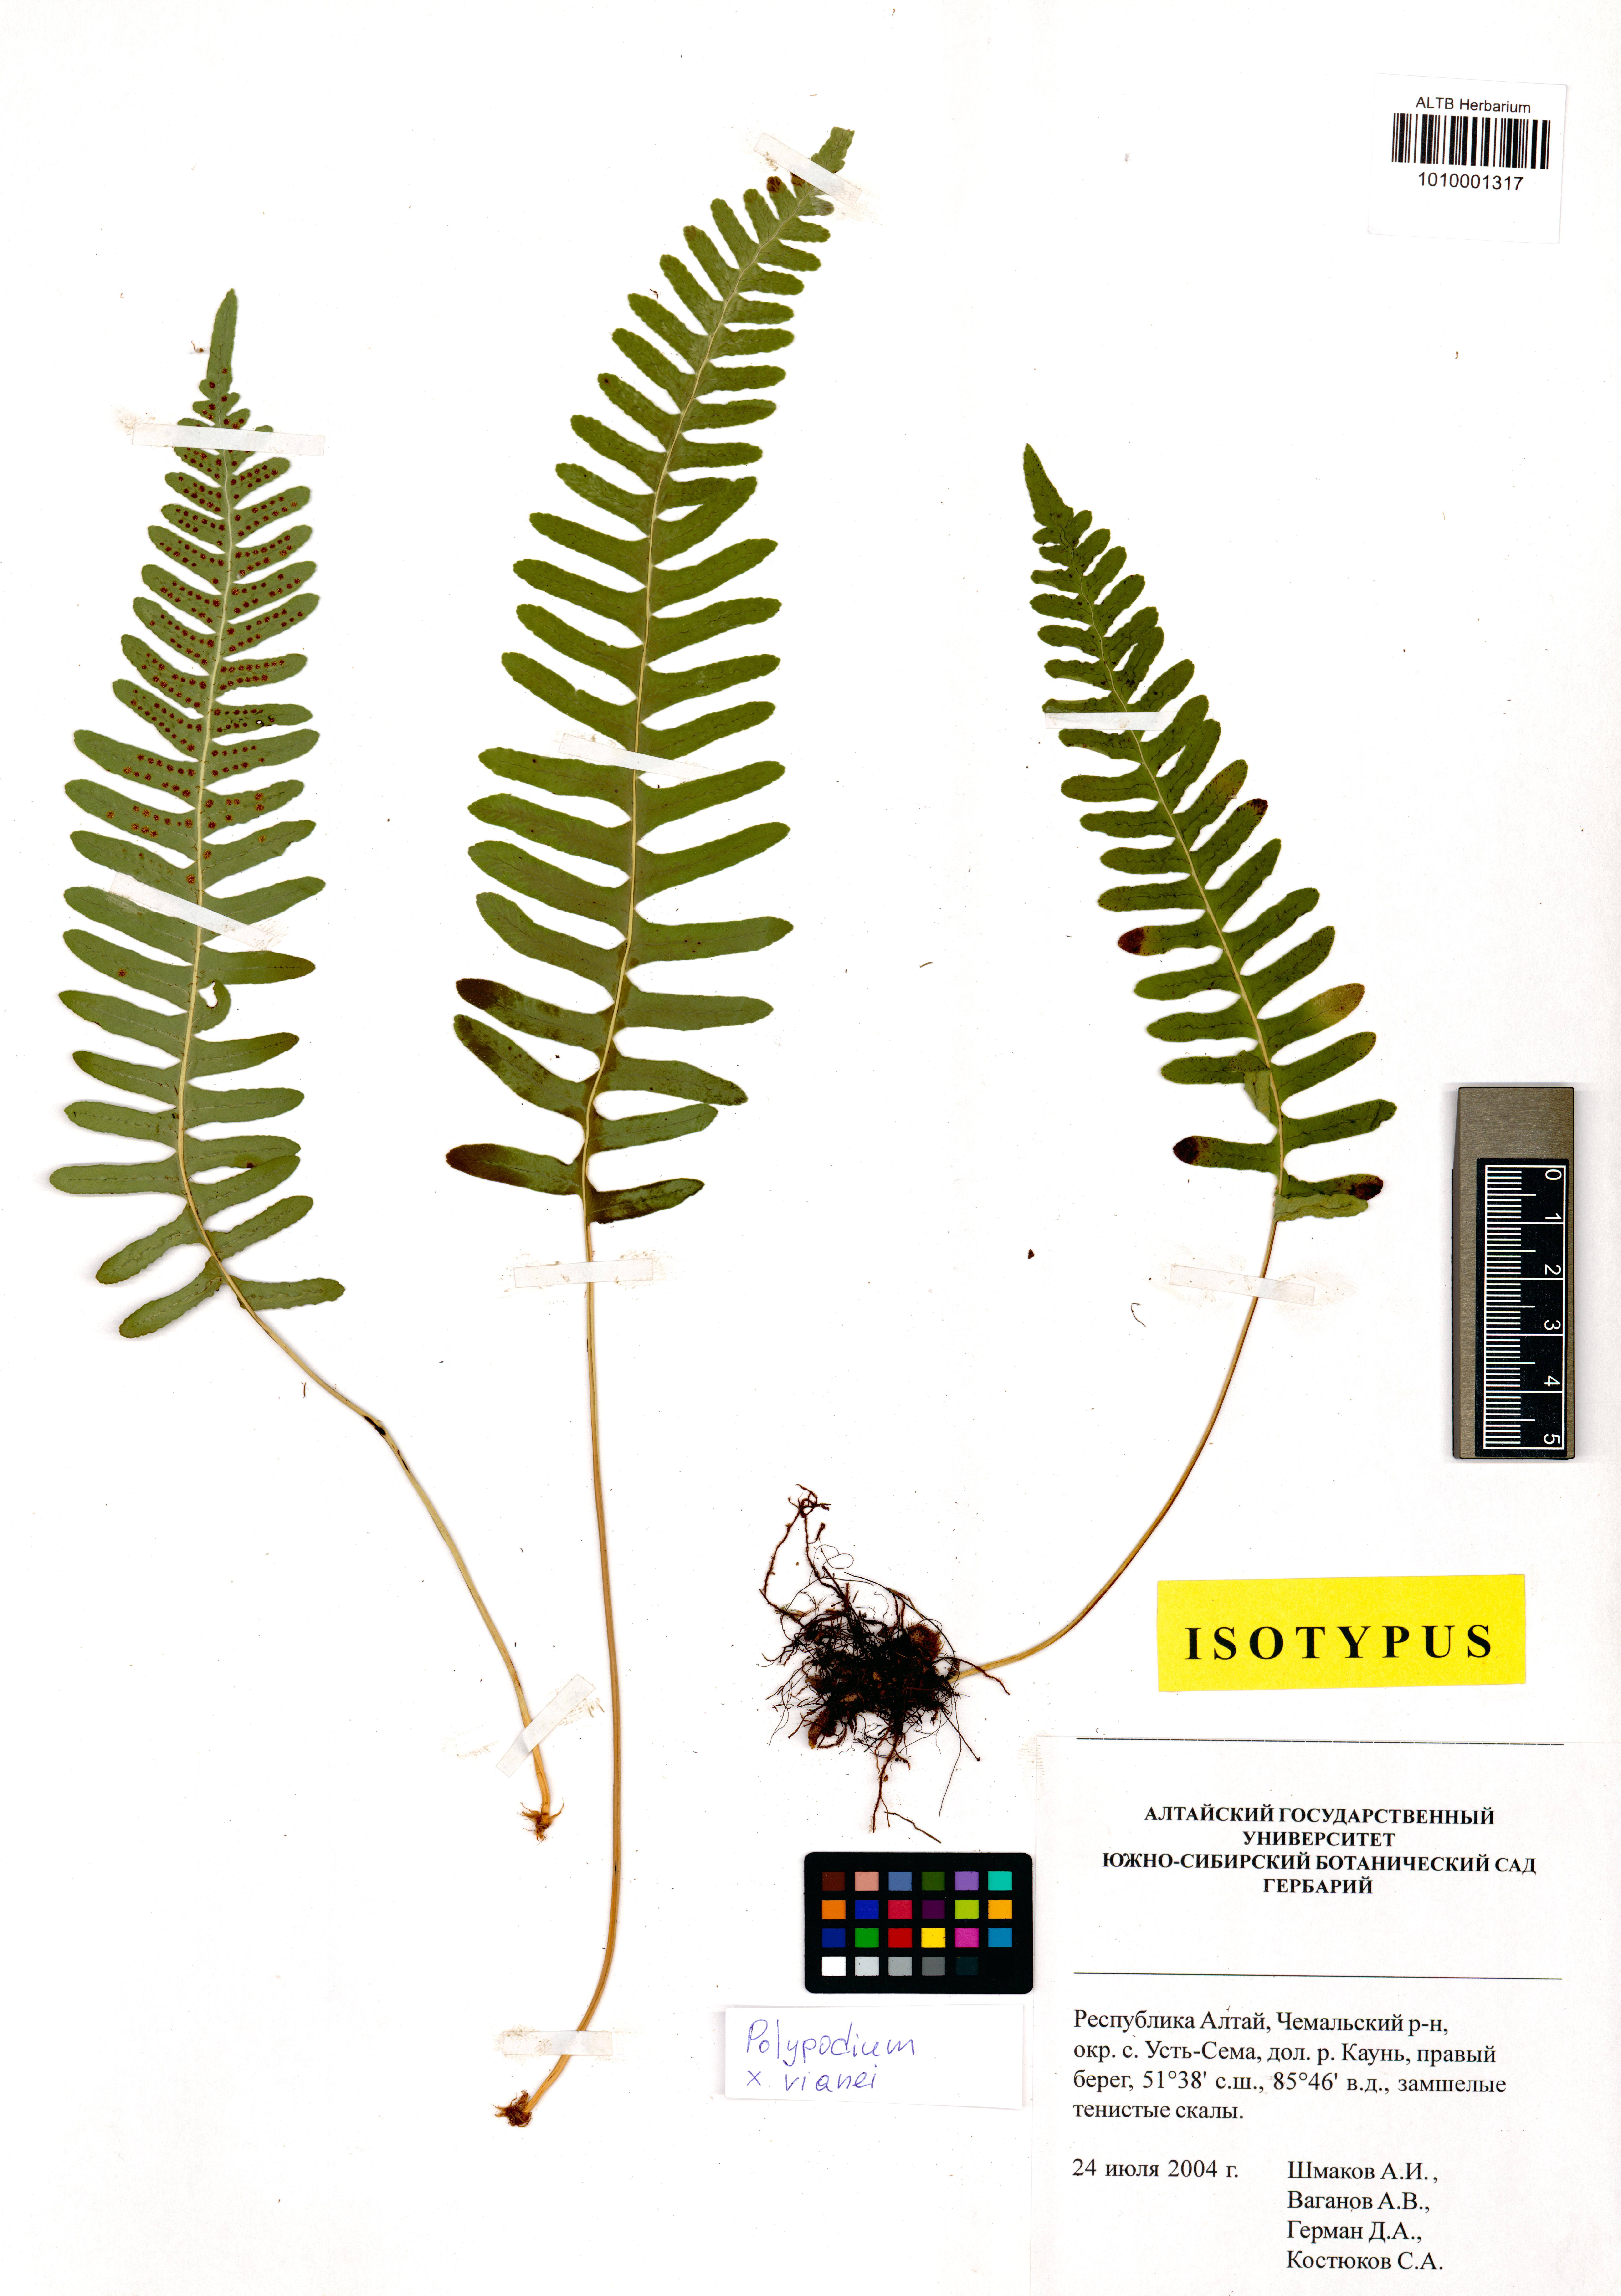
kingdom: Plantae
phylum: Tracheophyta
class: Polypodiopsida
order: Polypodiales
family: Polypodiaceae
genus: Polypodium
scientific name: Polypodium vianei
